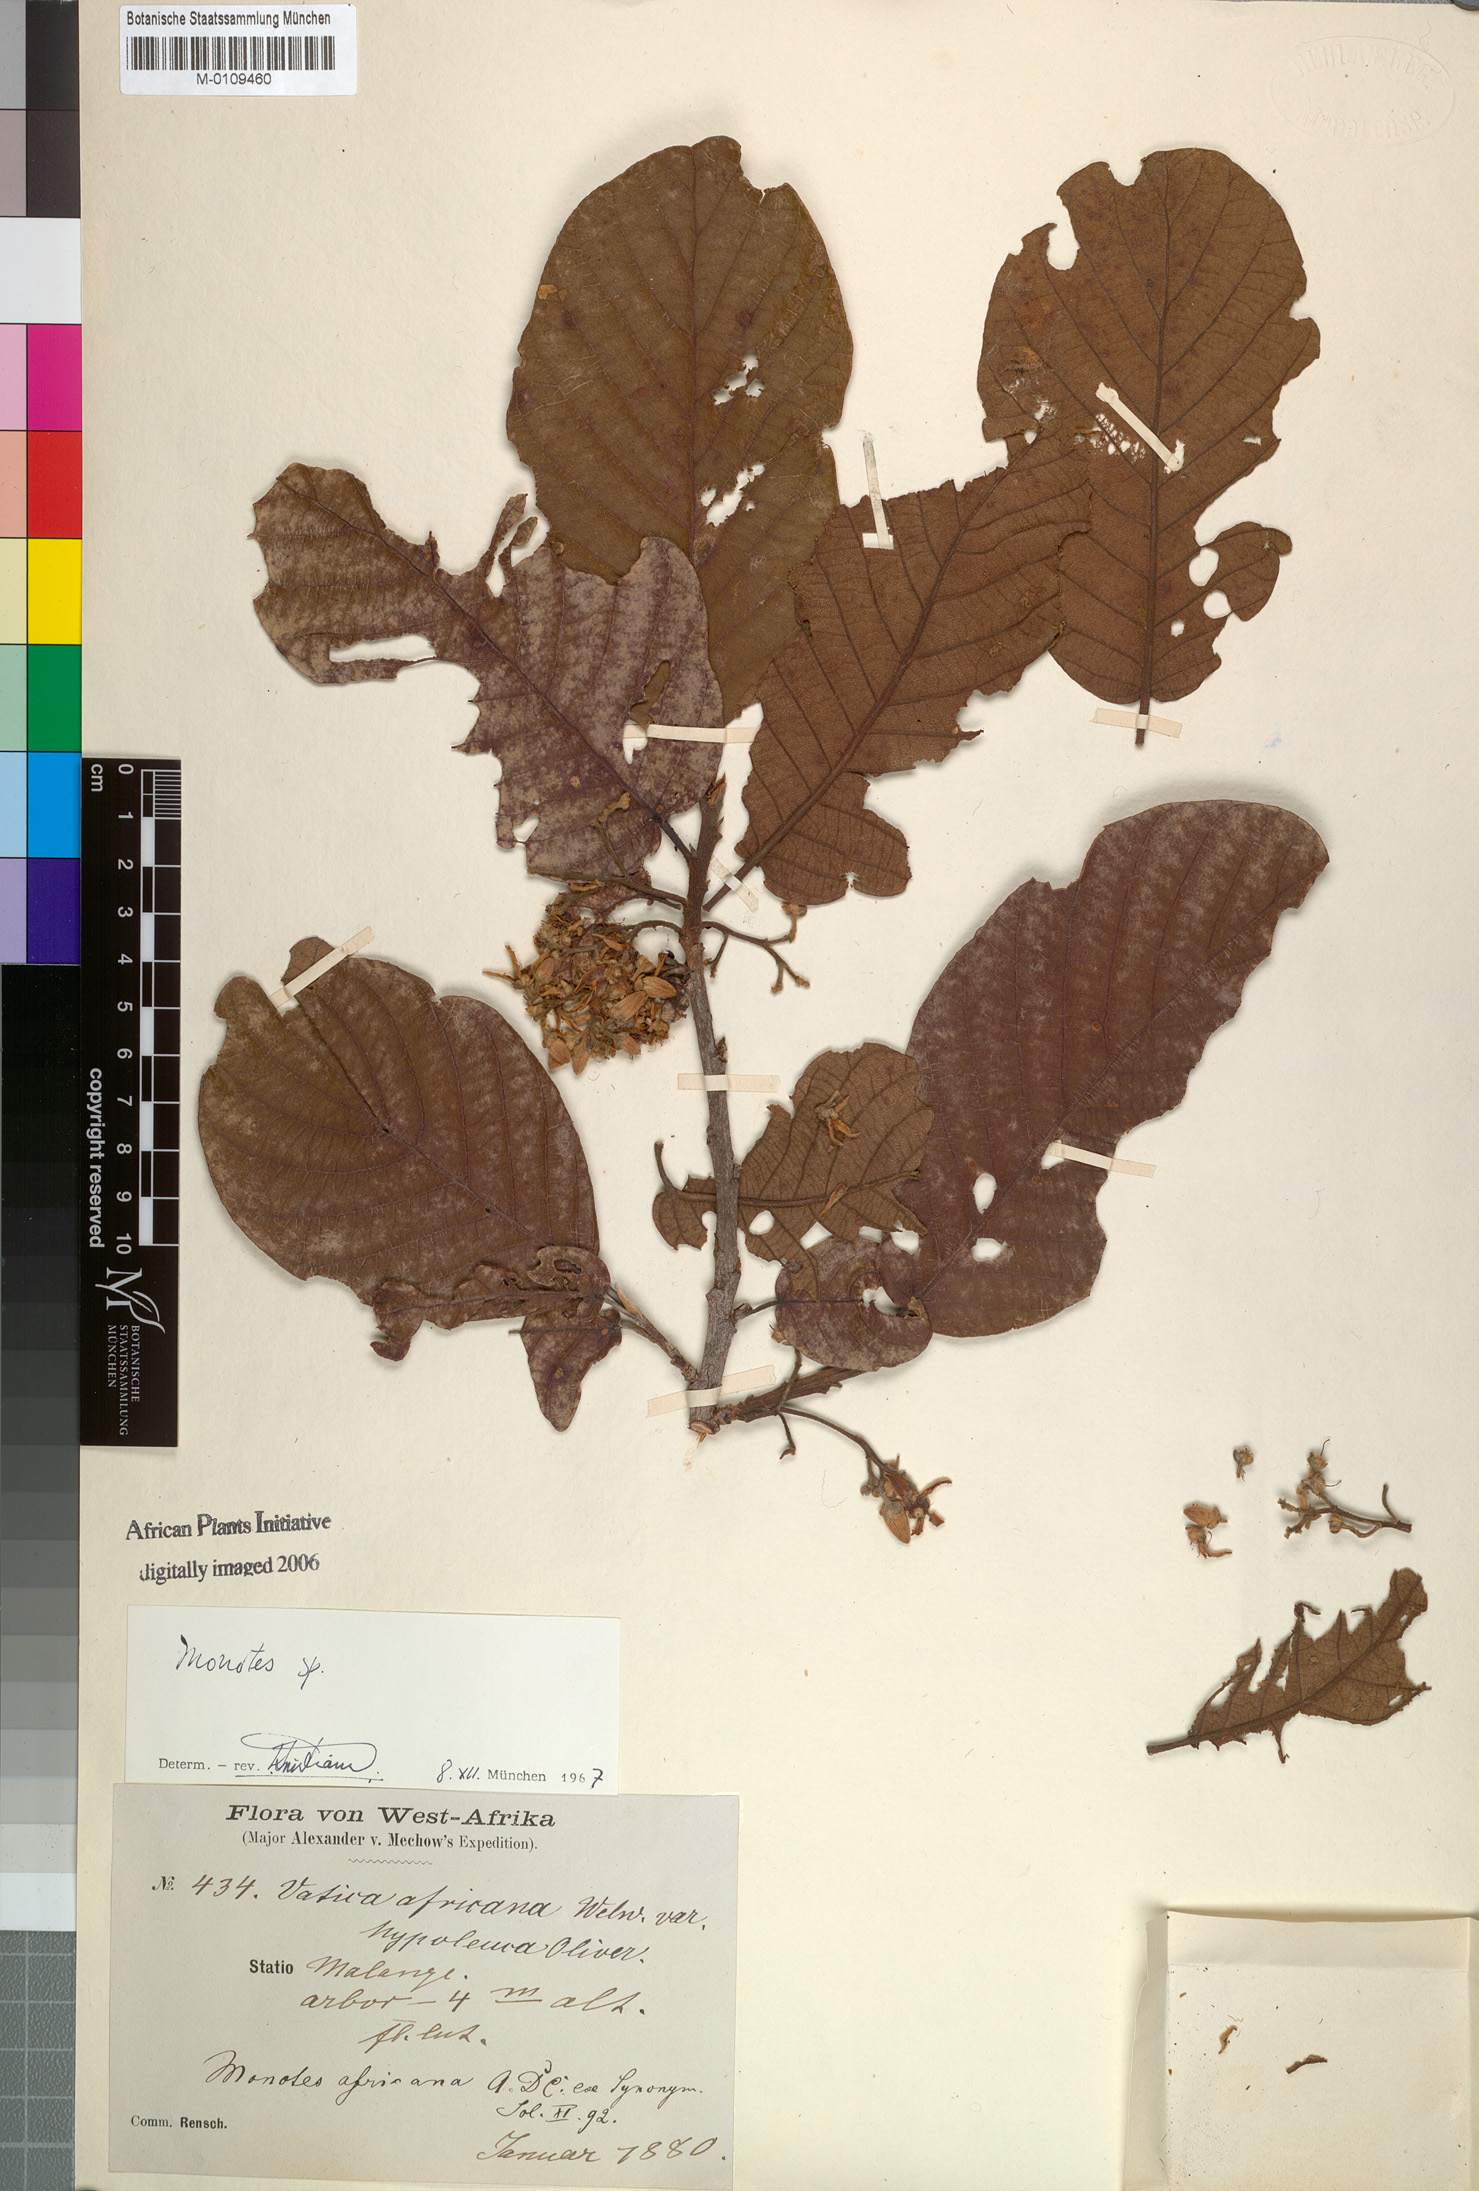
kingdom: Plantae
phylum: Tracheophyta
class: Magnoliopsida
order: Malvales
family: Dipterocarpaceae
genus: Monotes
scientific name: Monotes africanus
